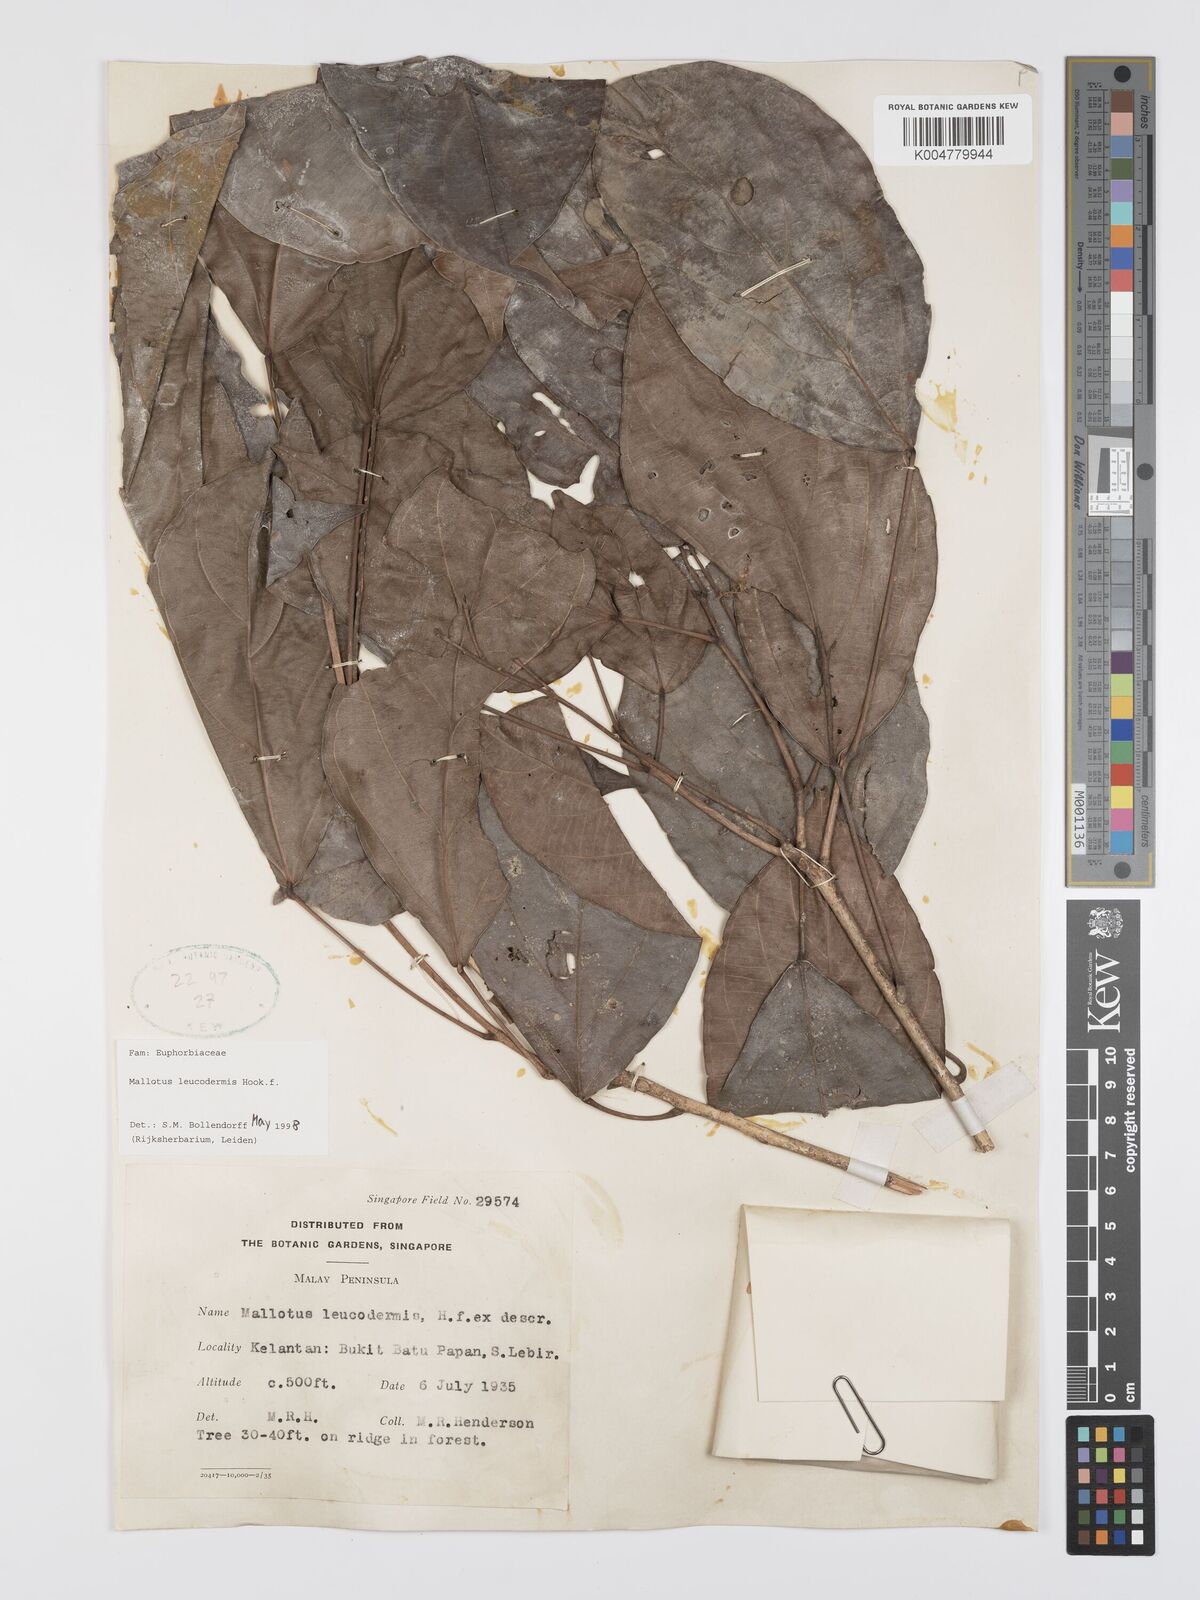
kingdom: Plantae
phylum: Tracheophyta
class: Magnoliopsida
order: Malpighiales
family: Euphorbiaceae
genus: Mallotus
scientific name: Mallotus leucodermis
